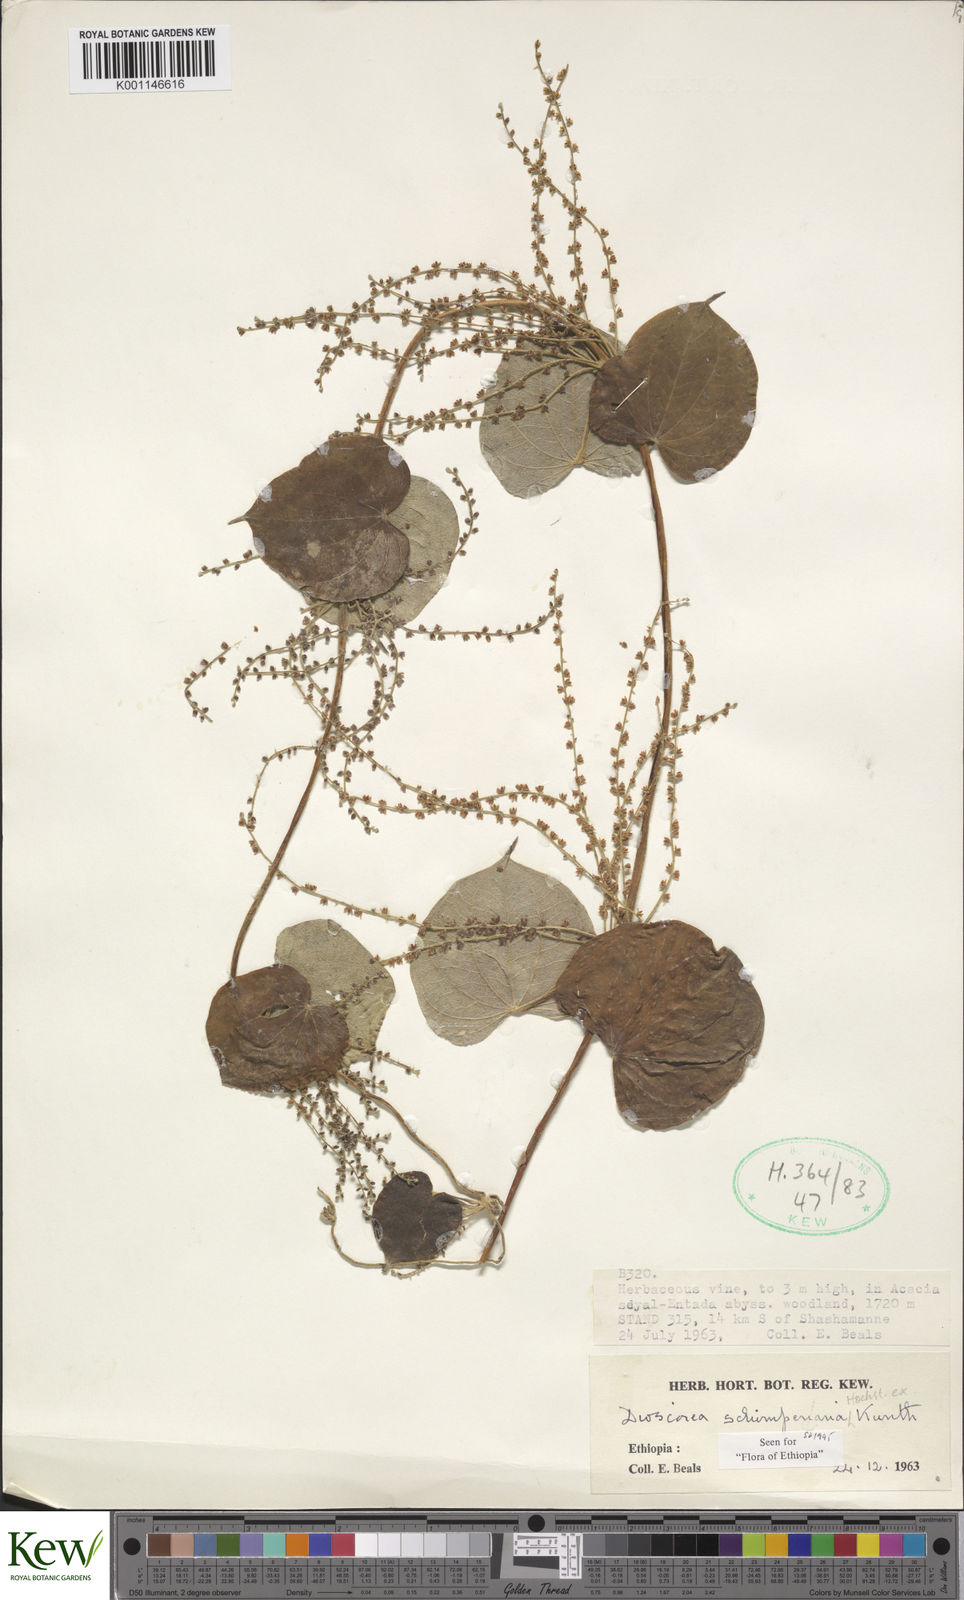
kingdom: Plantae
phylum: Tracheophyta
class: Liliopsida
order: Dioscoreales
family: Dioscoreaceae
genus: Dioscorea
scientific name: Dioscorea schimperiana
